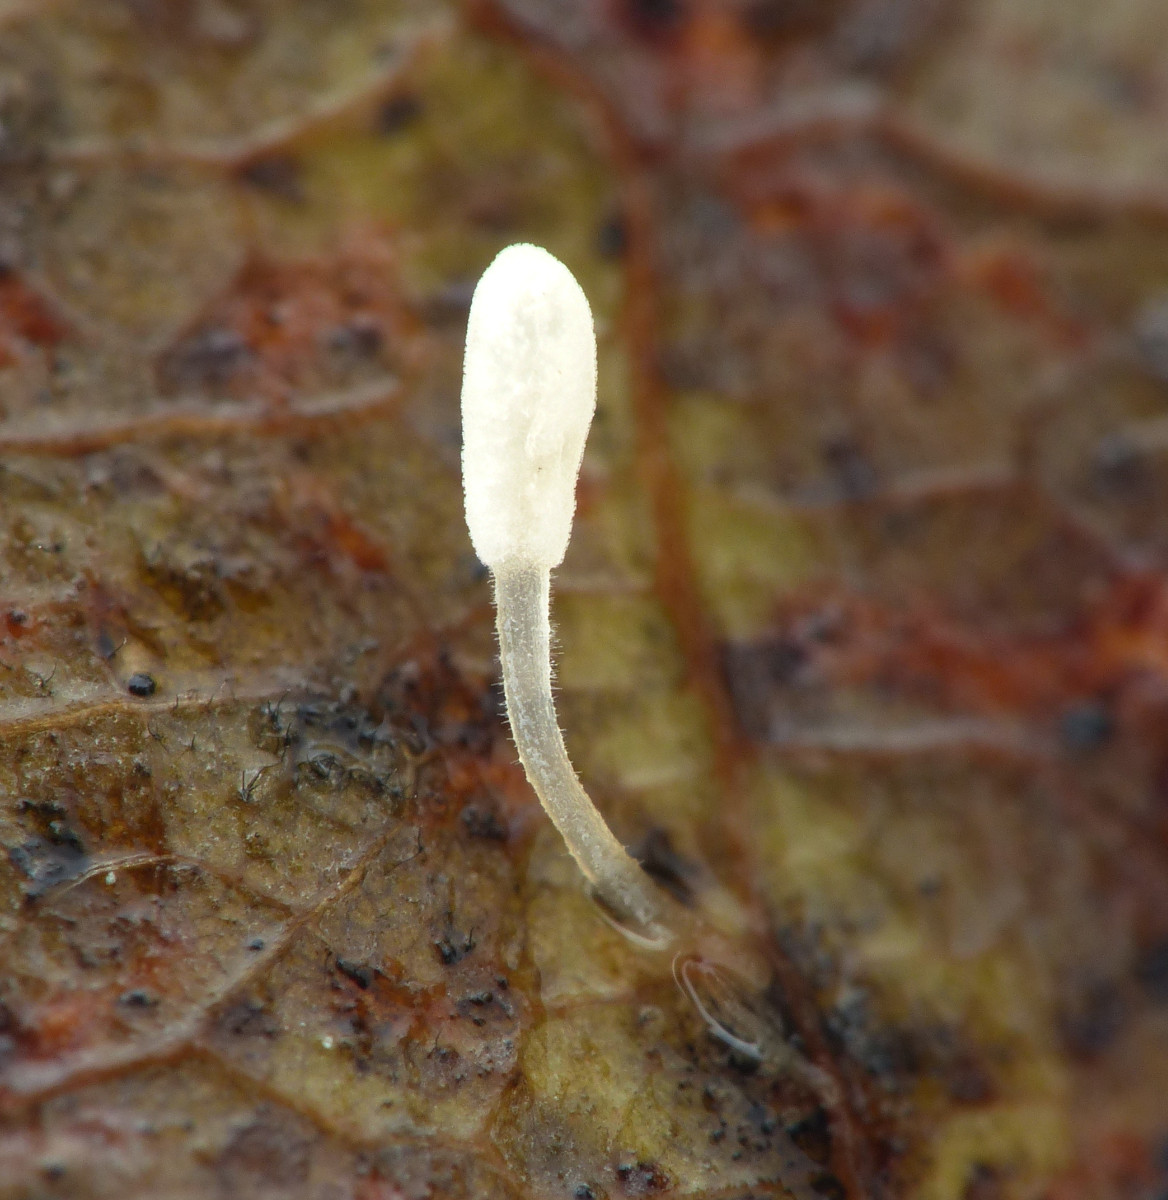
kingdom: Fungi
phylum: Basidiomycota
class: Agaricomycetes
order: Agaricales
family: Typhulaceae
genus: Typhula
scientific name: Typhula setipes
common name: liden trådkølle
